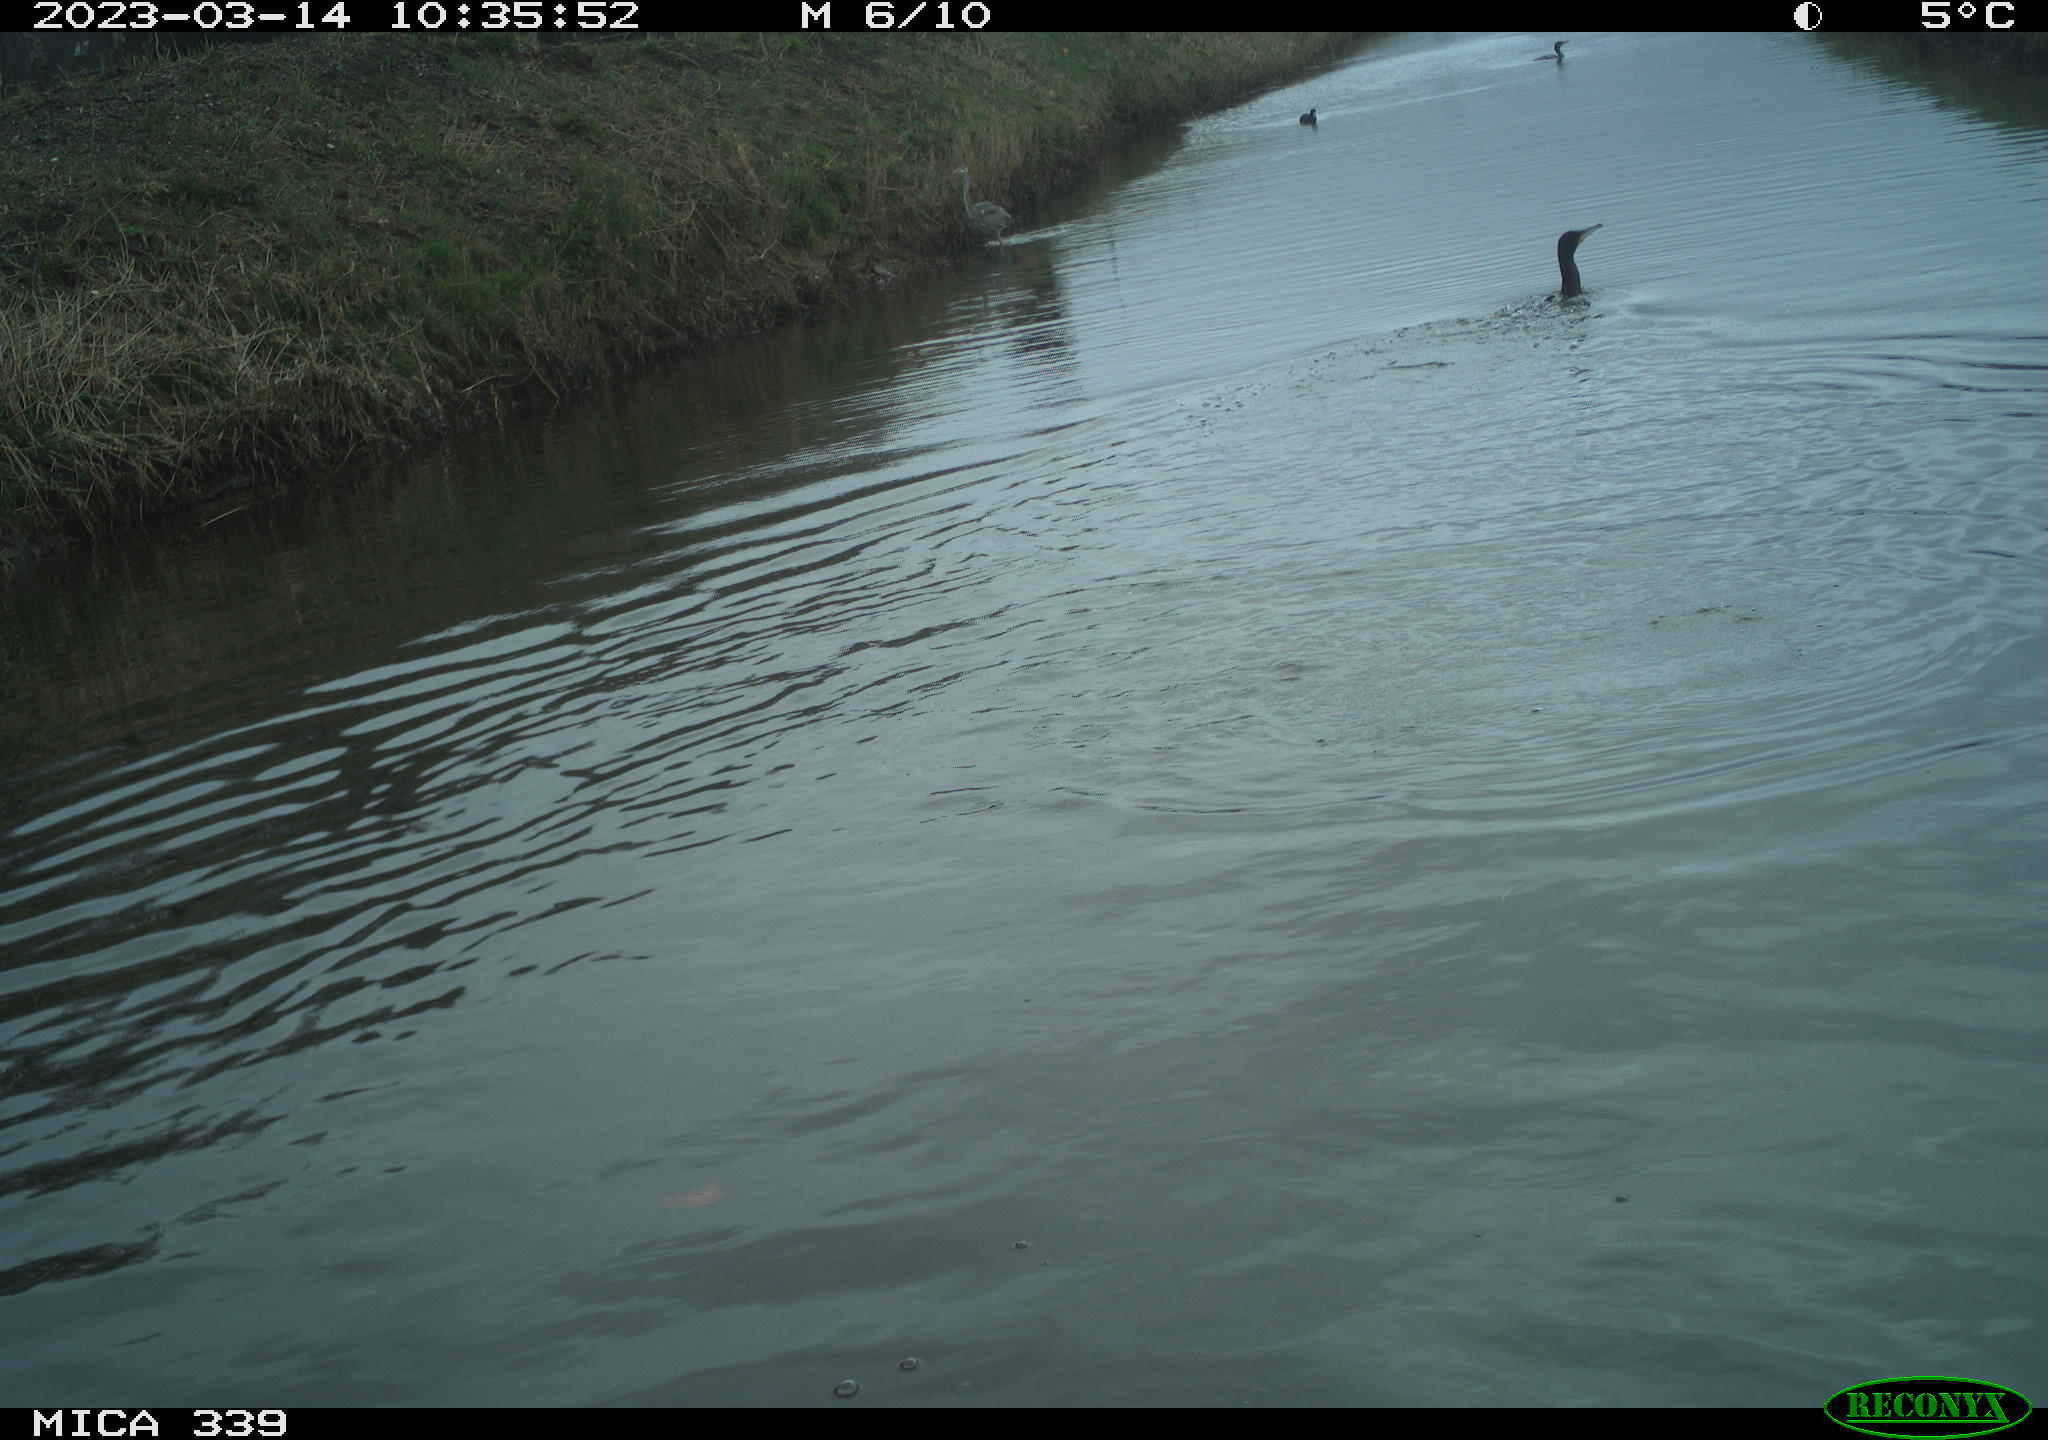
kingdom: Animalia
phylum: Chordata
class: Aves
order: Suliformes
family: Phalacrocoracidae
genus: Phalacrocorax
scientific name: Phalacrocorax carbo
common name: Great cormorant
